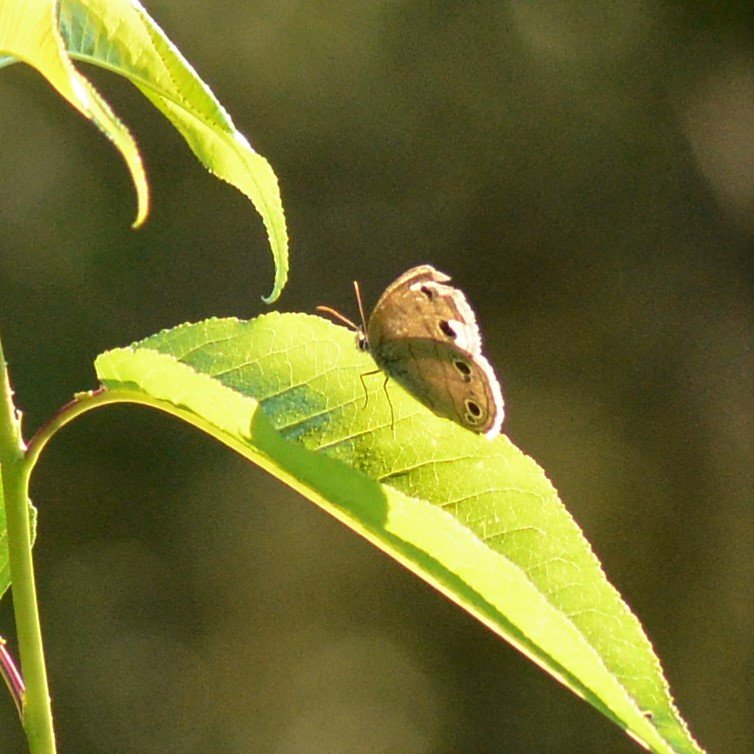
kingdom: Animalia
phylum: Arthropoda
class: Insecta
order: Lepidoptera
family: Nymphalidae
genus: Euptychia
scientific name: Euptychia cymela
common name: Little Wood Satyr
